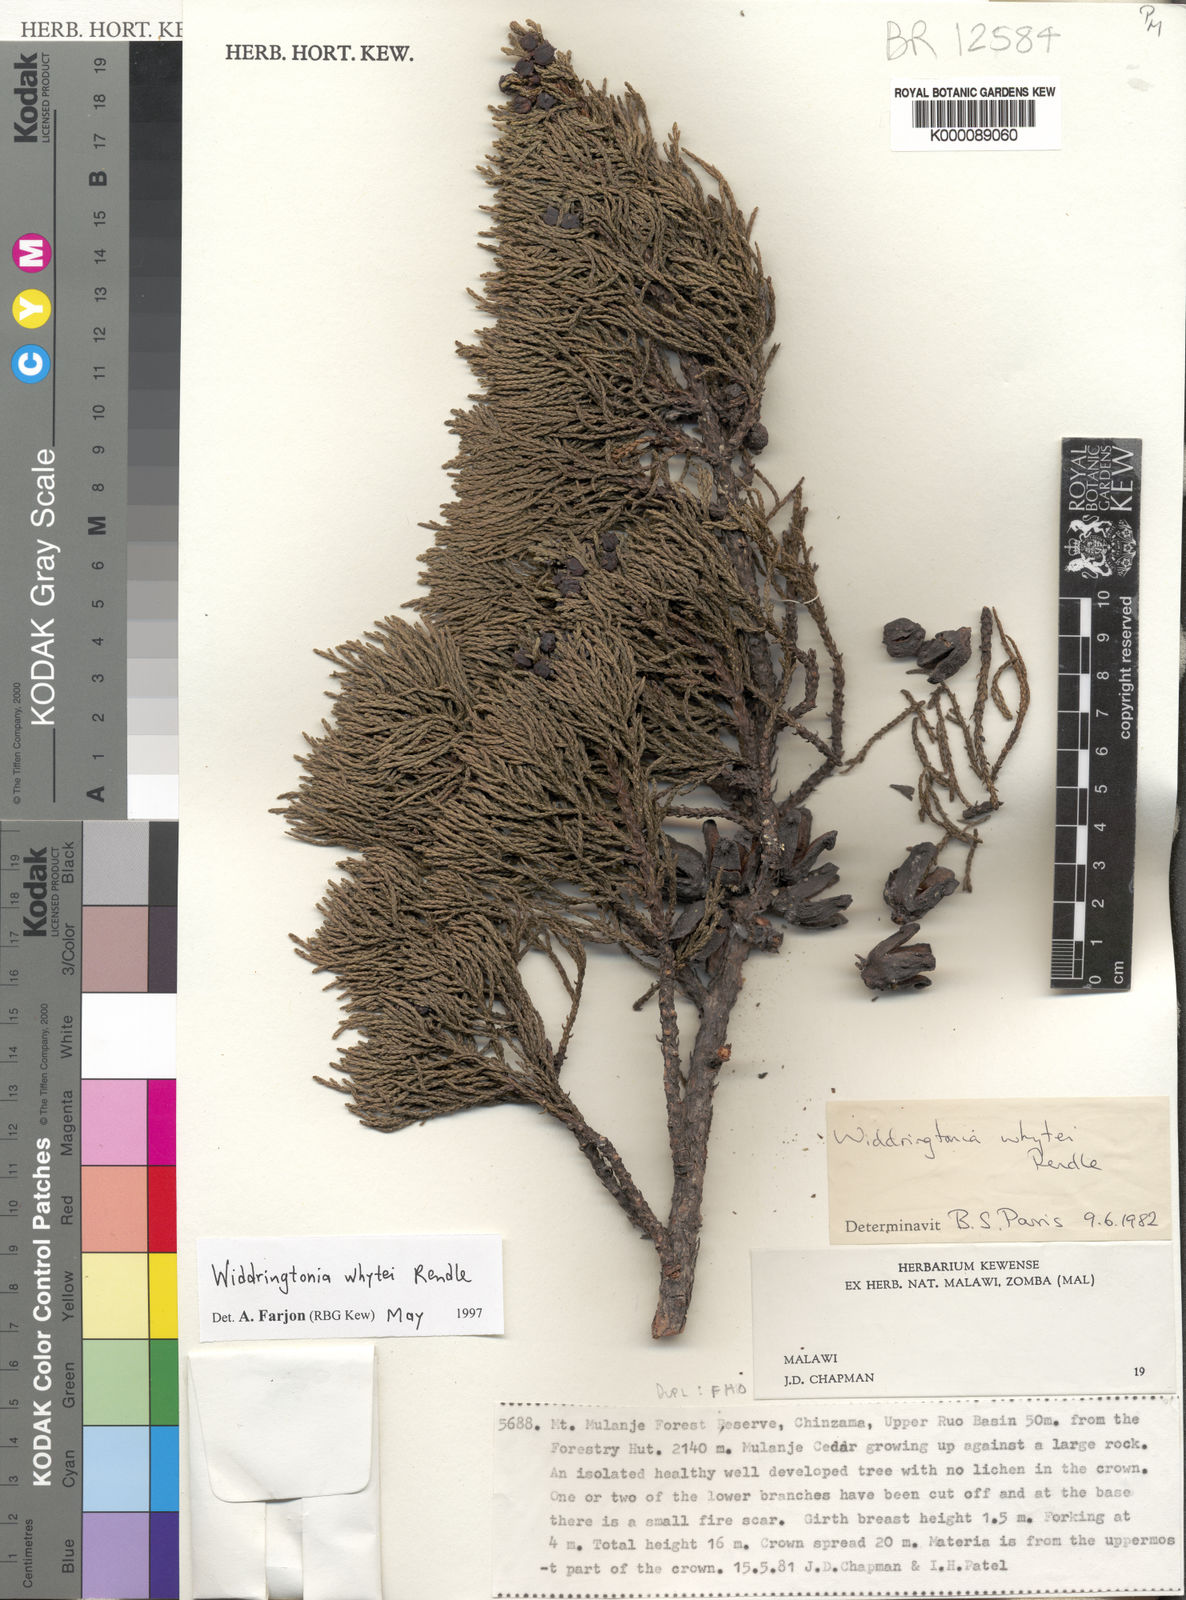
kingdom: Plantae
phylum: Tracheophyta
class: Pinopsida
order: Pinales
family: Cupressaceae
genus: Widdringtonia
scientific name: Widdringtonia whytei
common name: Mulanje cedar
